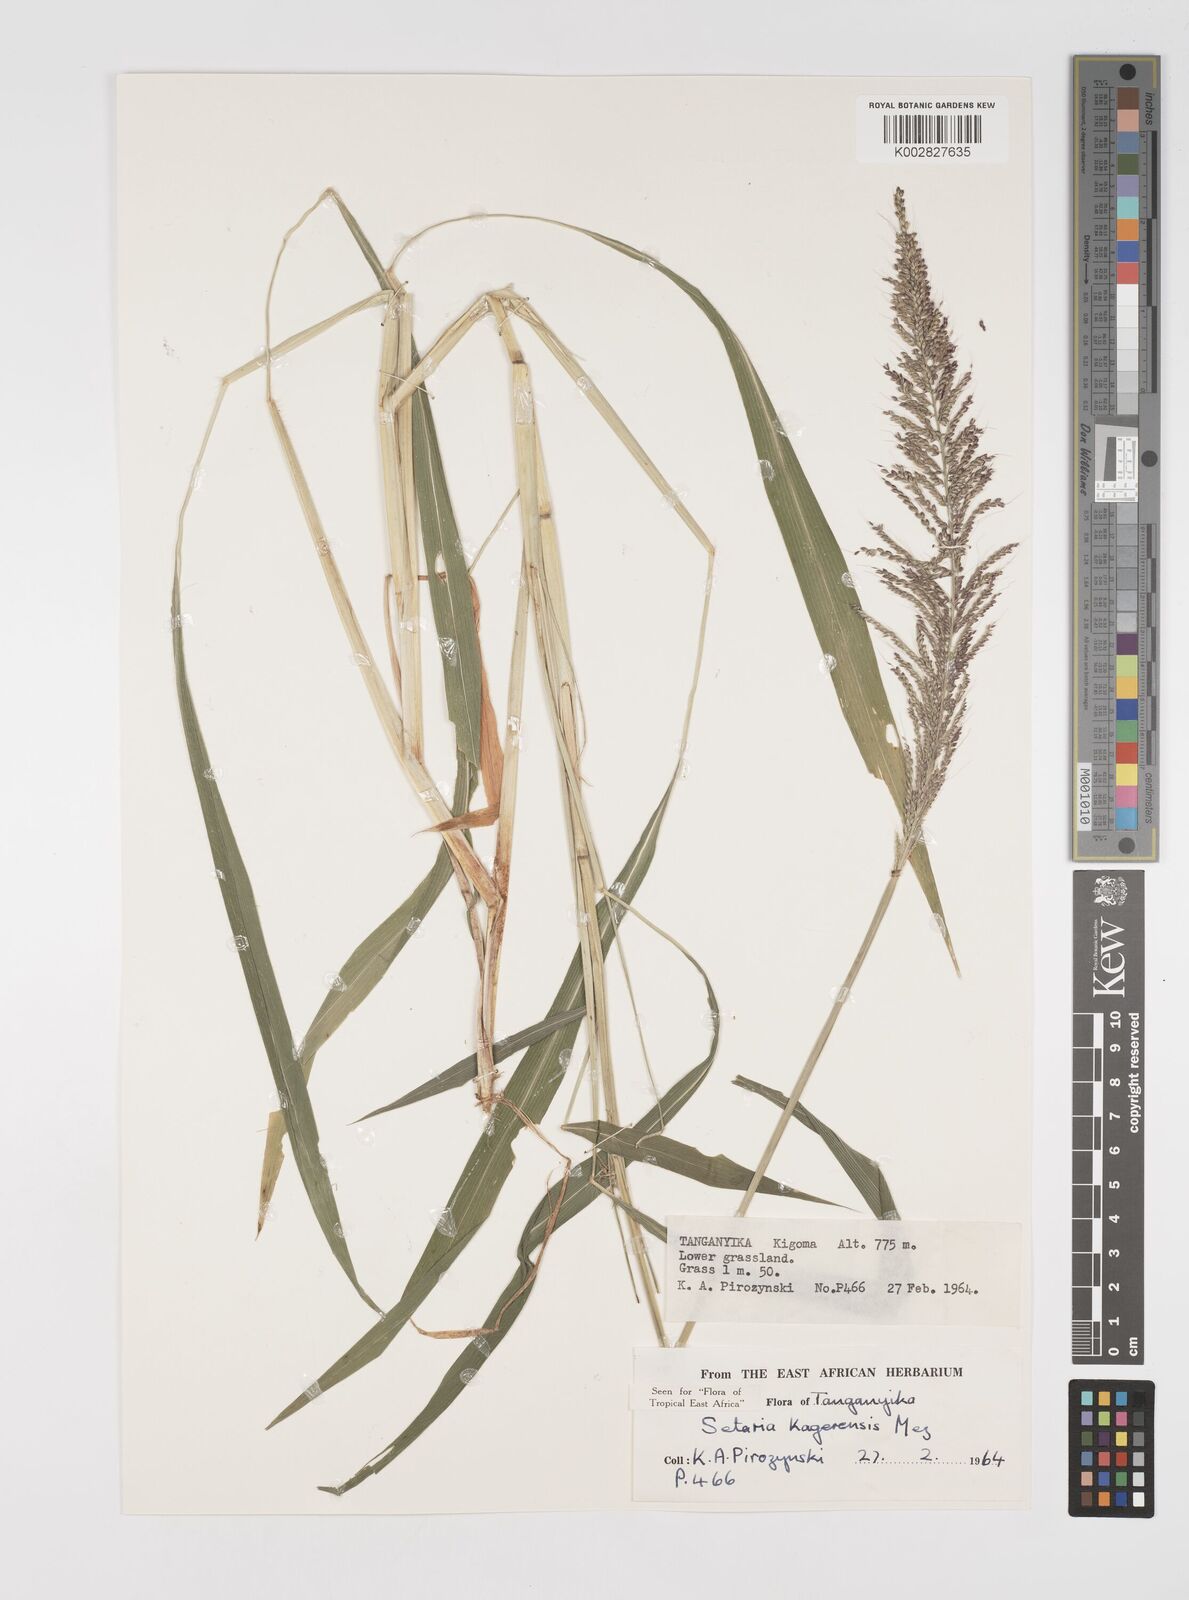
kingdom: Plantae
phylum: Tracheophyta
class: Liliopsida
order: Poales
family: Poaceae
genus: Setaria
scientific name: Setaria kagerensis
